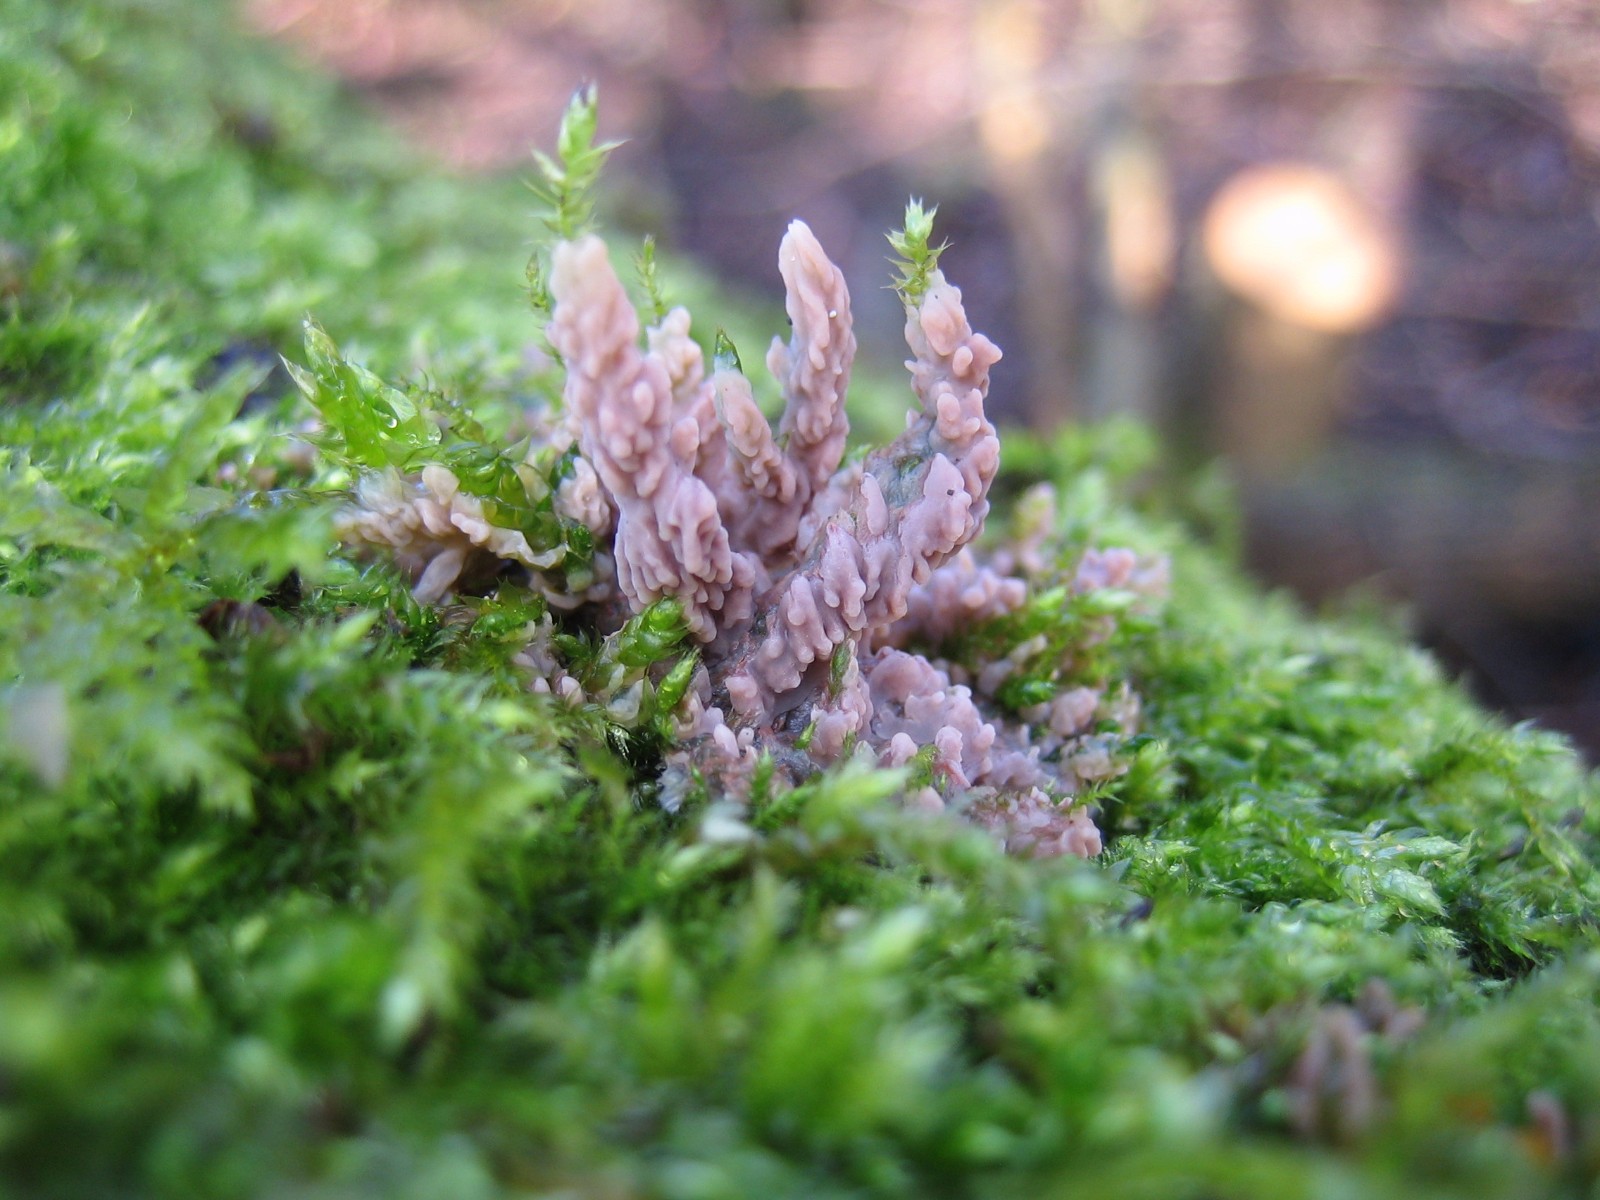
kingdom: Fungi
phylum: Basidiomycota
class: Agaricomycetes
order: Polyporales
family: Meruliaceae
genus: Phlebia
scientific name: Phlebia radiata
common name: stråle-åresvamp
